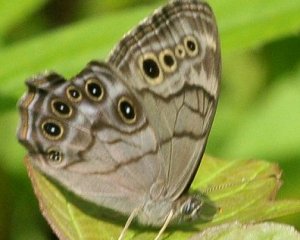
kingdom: Animalia
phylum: Arthropoda
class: Insecta
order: Lepidoptera
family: Nymphalidae
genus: Lethe
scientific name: Lethe anthedon
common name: Northern Pearly-Eye
